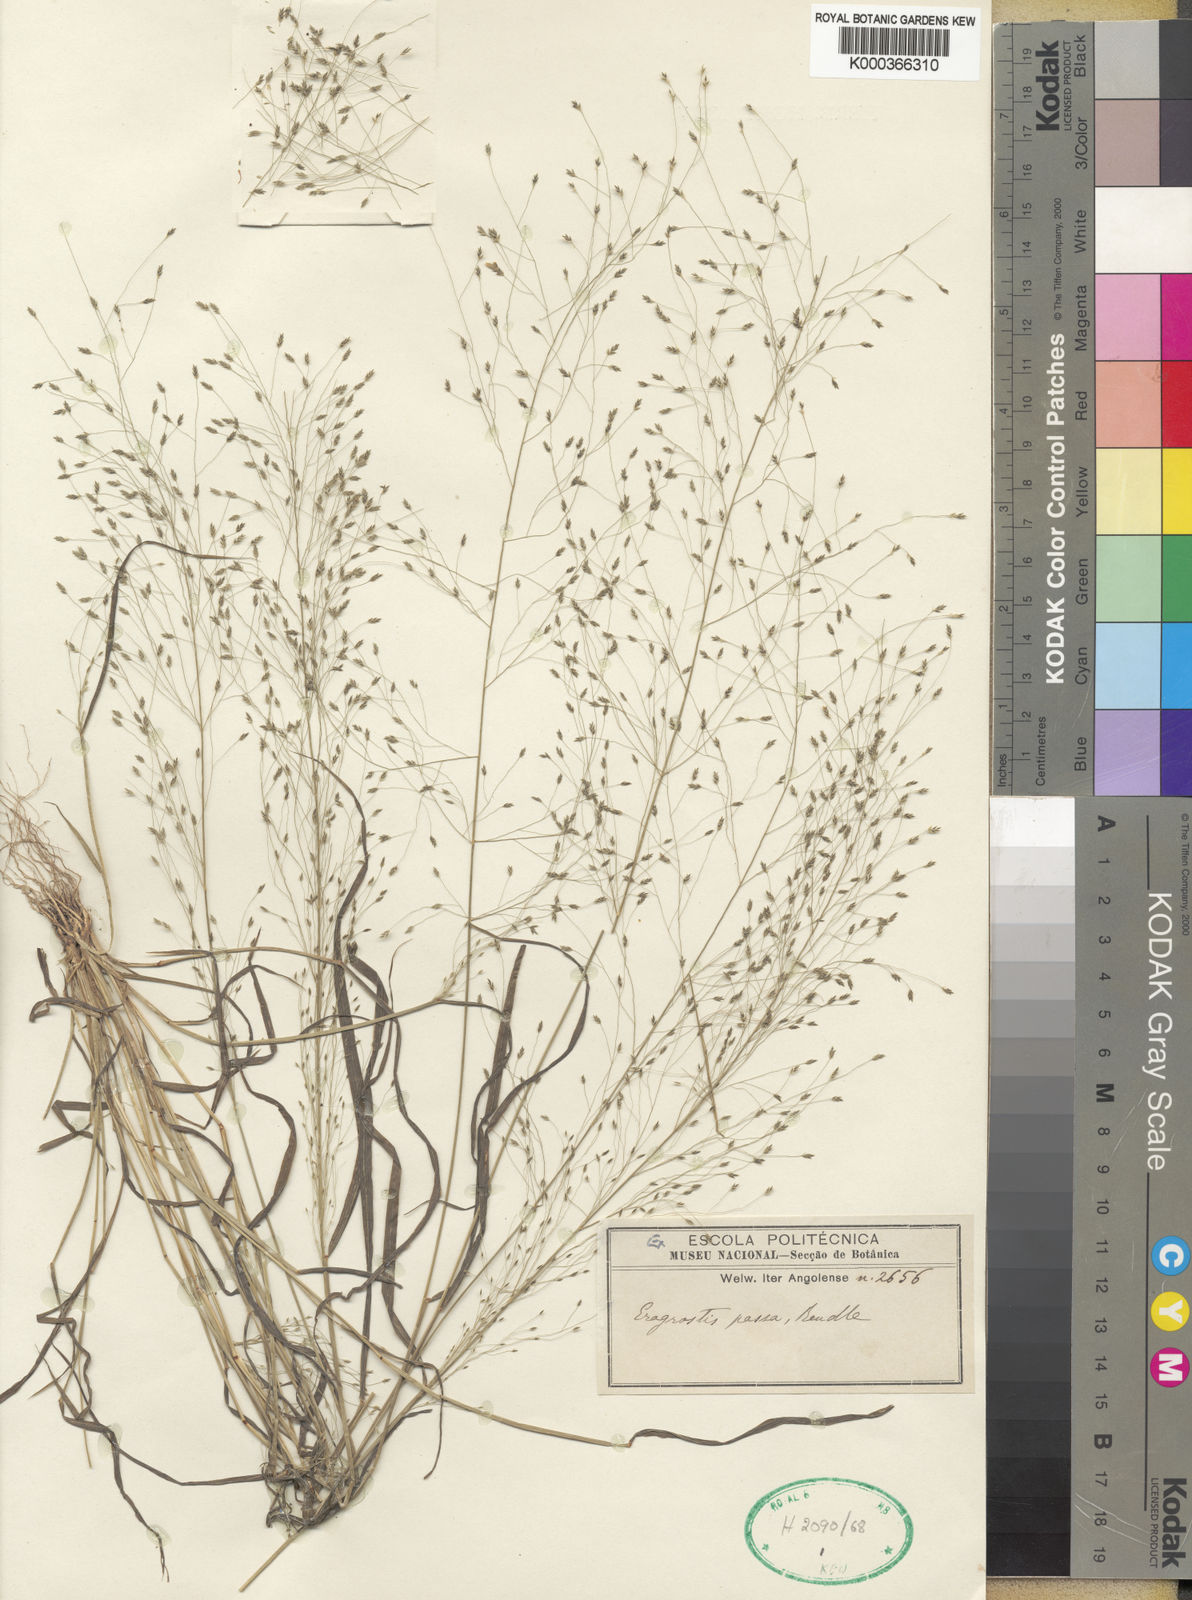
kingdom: Plantae
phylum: Tracheophyta
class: Liliopsida
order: Poales
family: Poaceae
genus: Eragrostis
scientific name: Eragrostis macilenta
